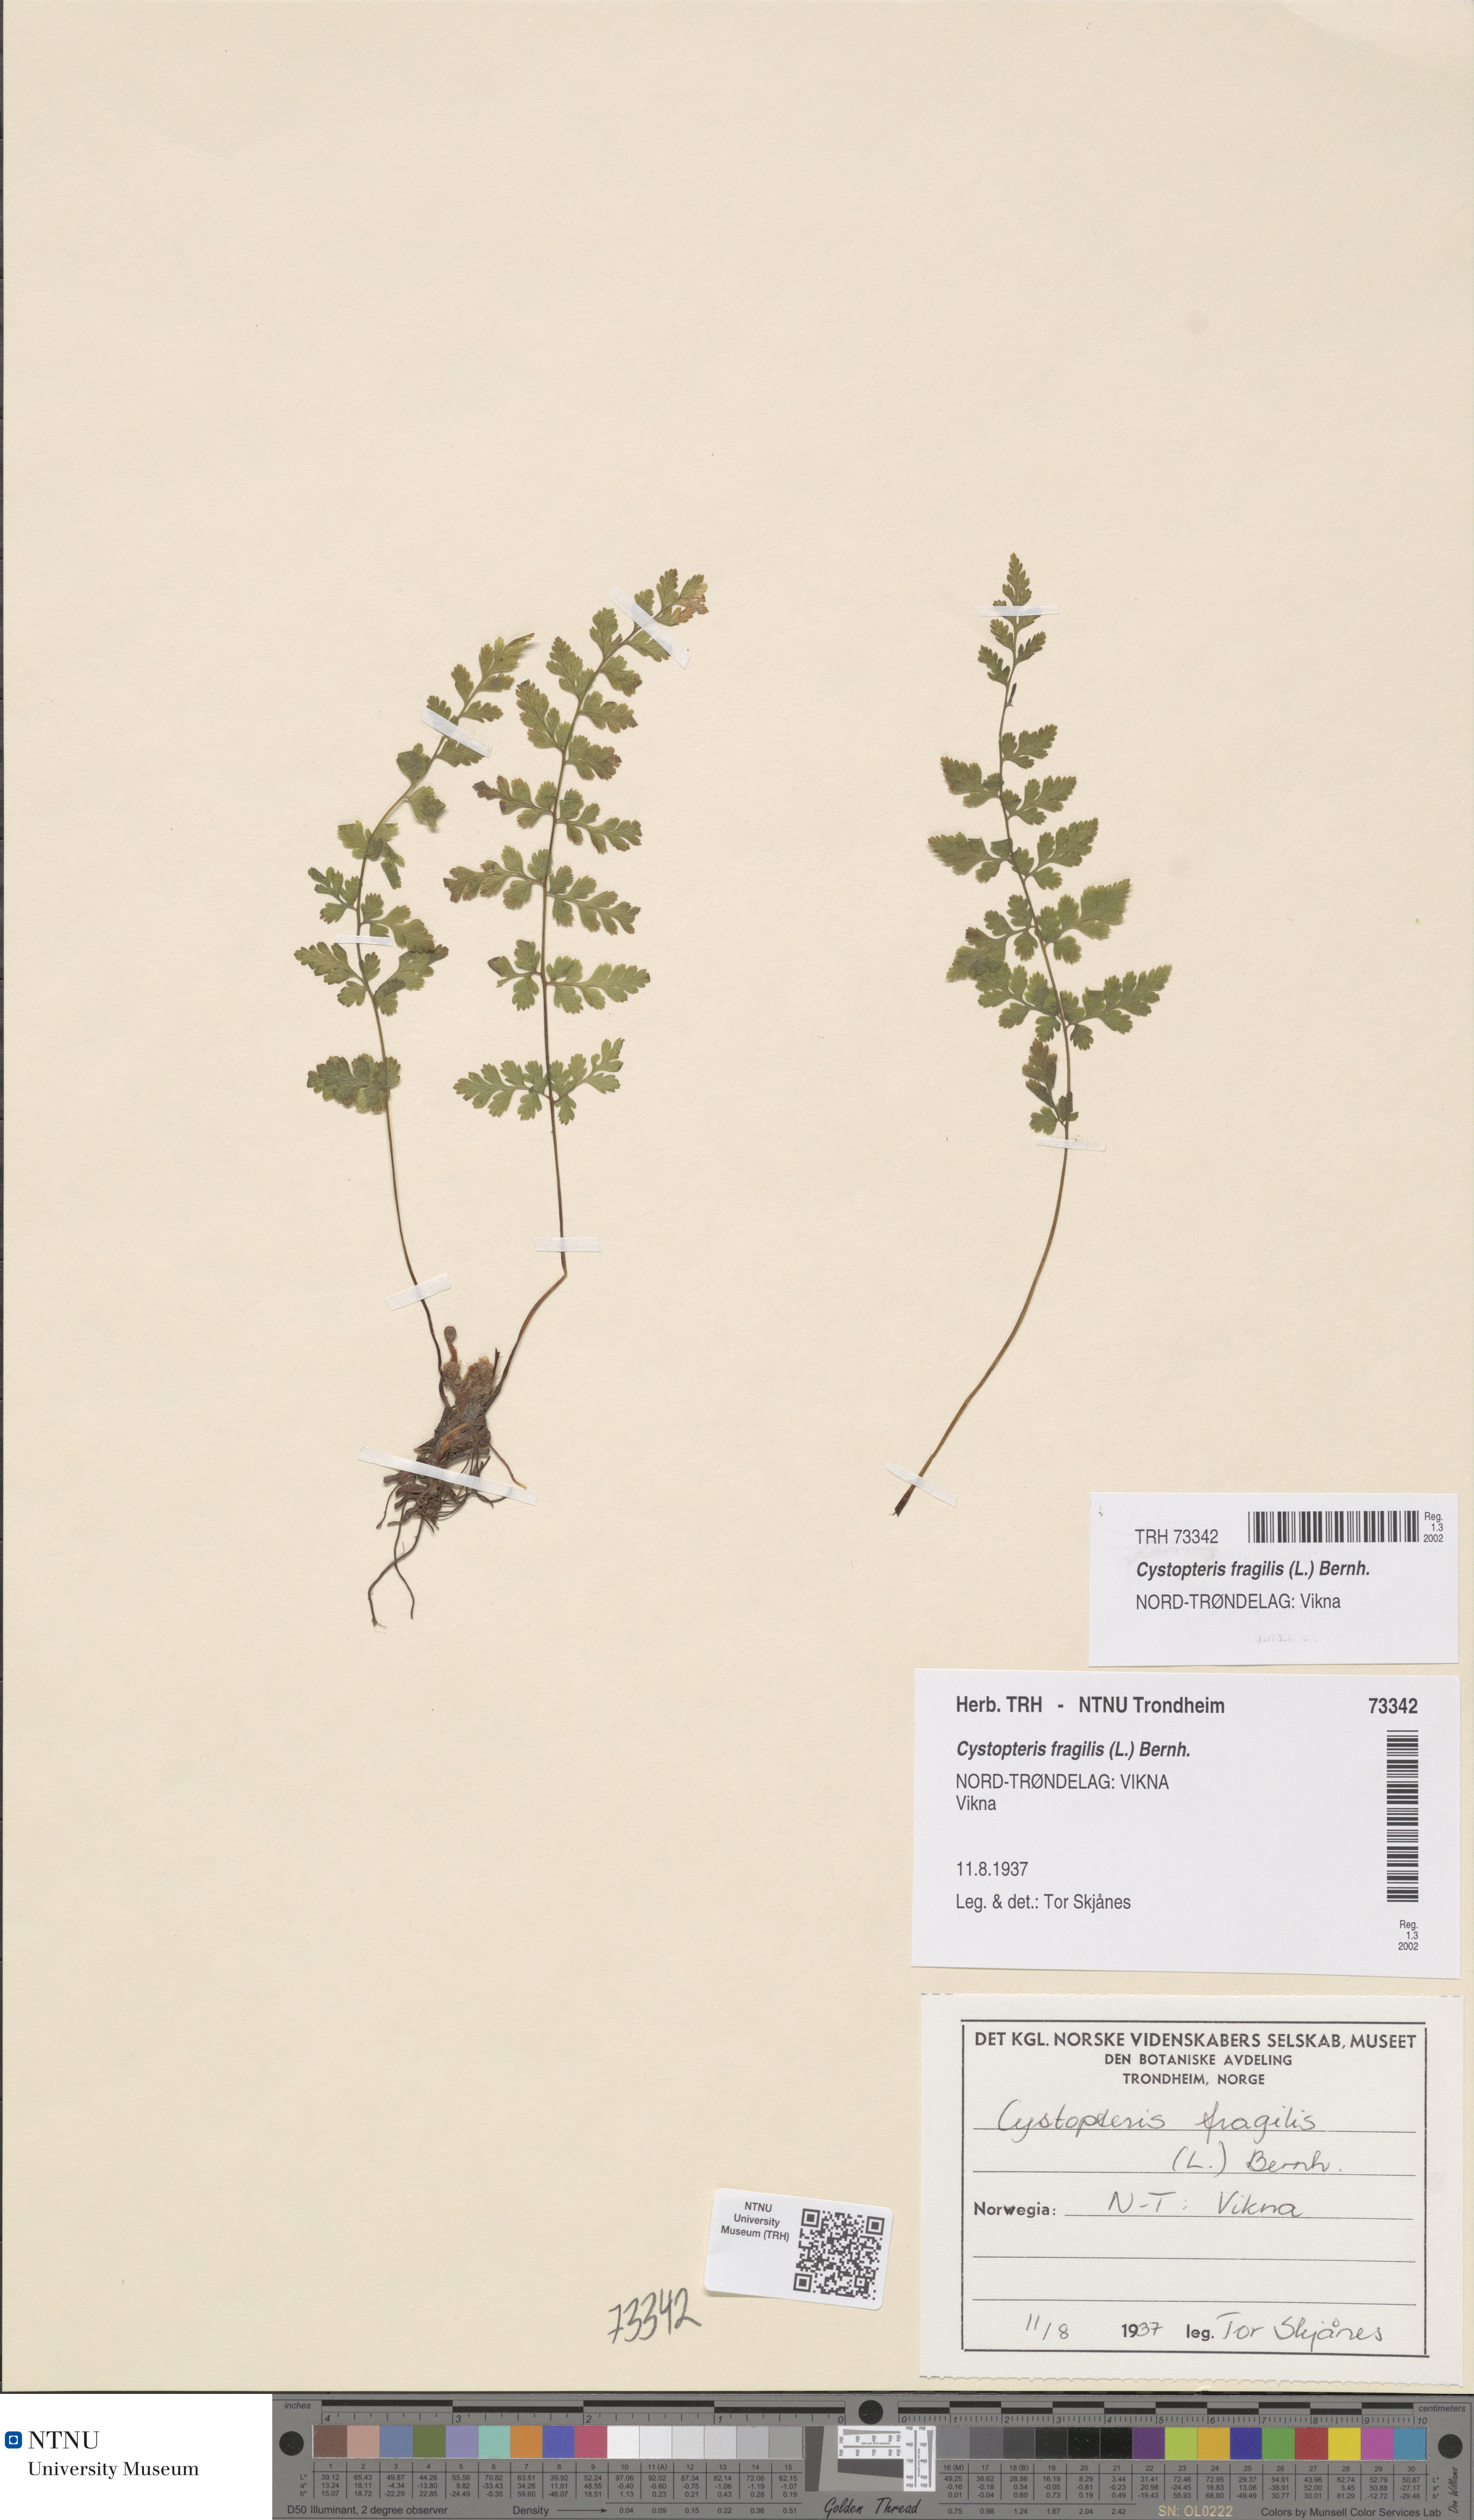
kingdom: Plantae
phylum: Tracheophyta
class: Polypodiopsida
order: Polypodiales
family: Cystopteridaceae
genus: Cystopteris
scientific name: Cystopteris fragilis
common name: Brittle bladder fern
